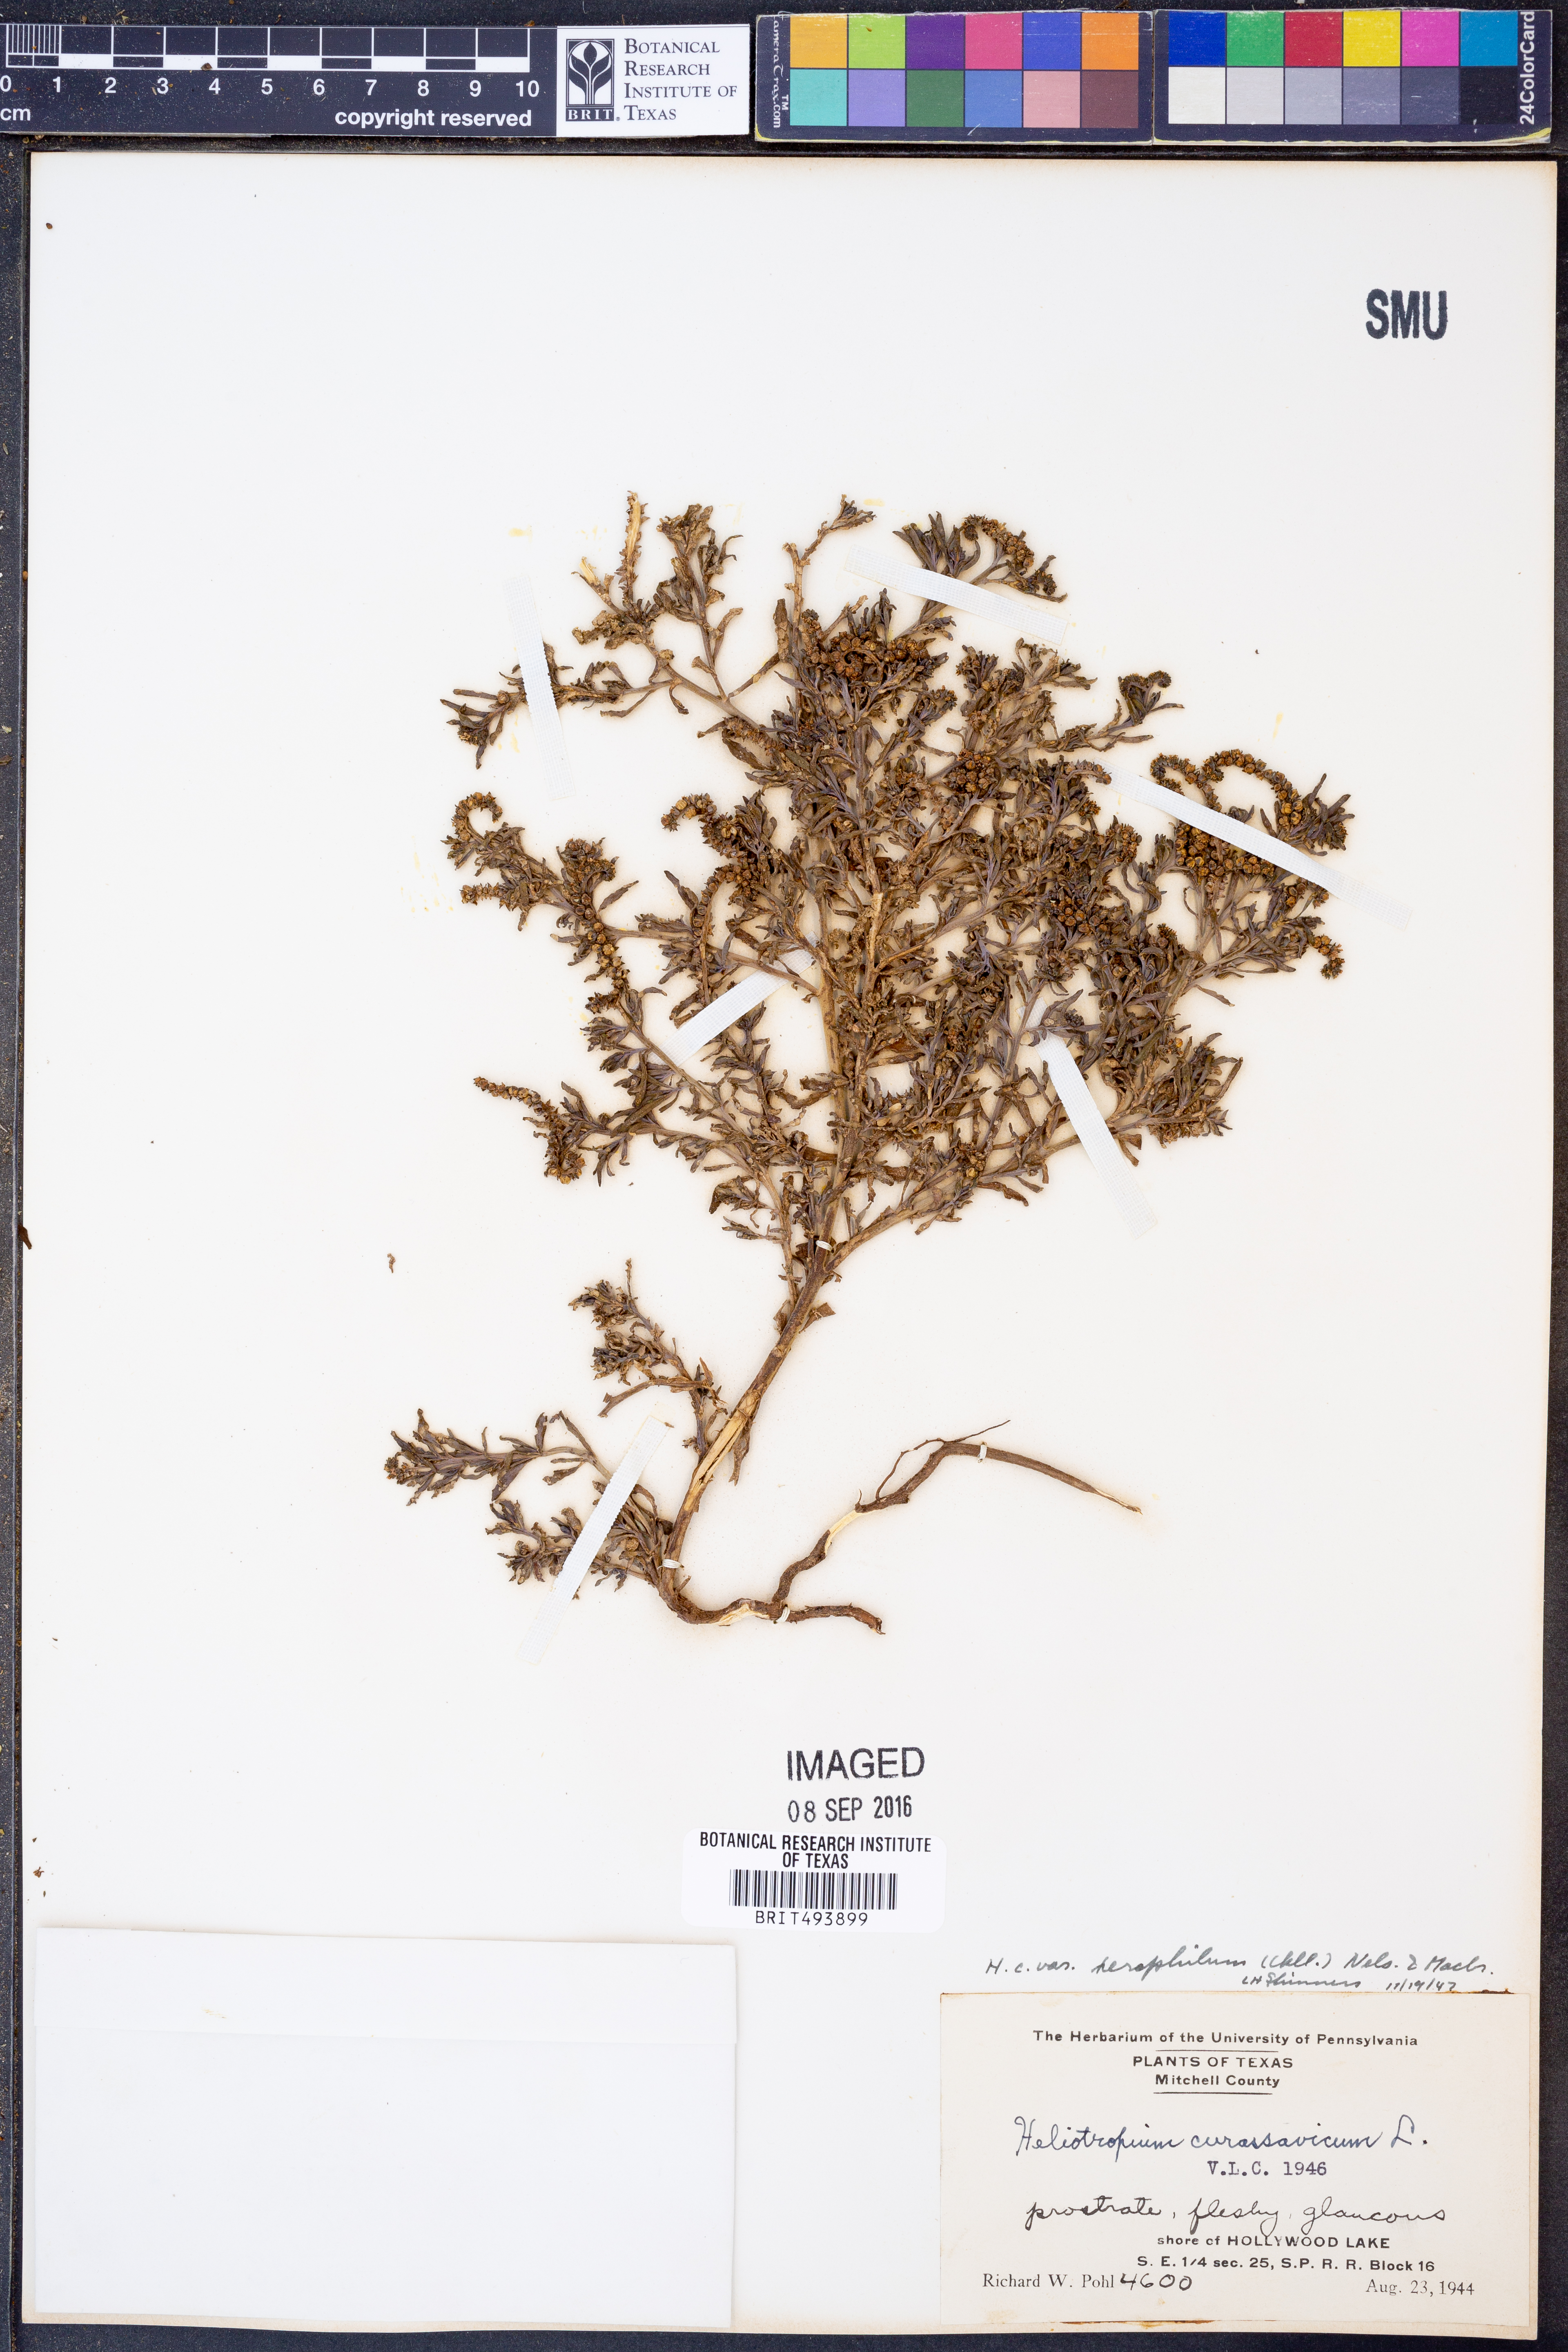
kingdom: Plantae
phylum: Tracheophyta
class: Magnoliopsida
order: Boraginales
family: Heliotropiaceae
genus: Heliotropium
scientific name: Heliotropium curassavicum
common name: Seaside heliotrope
